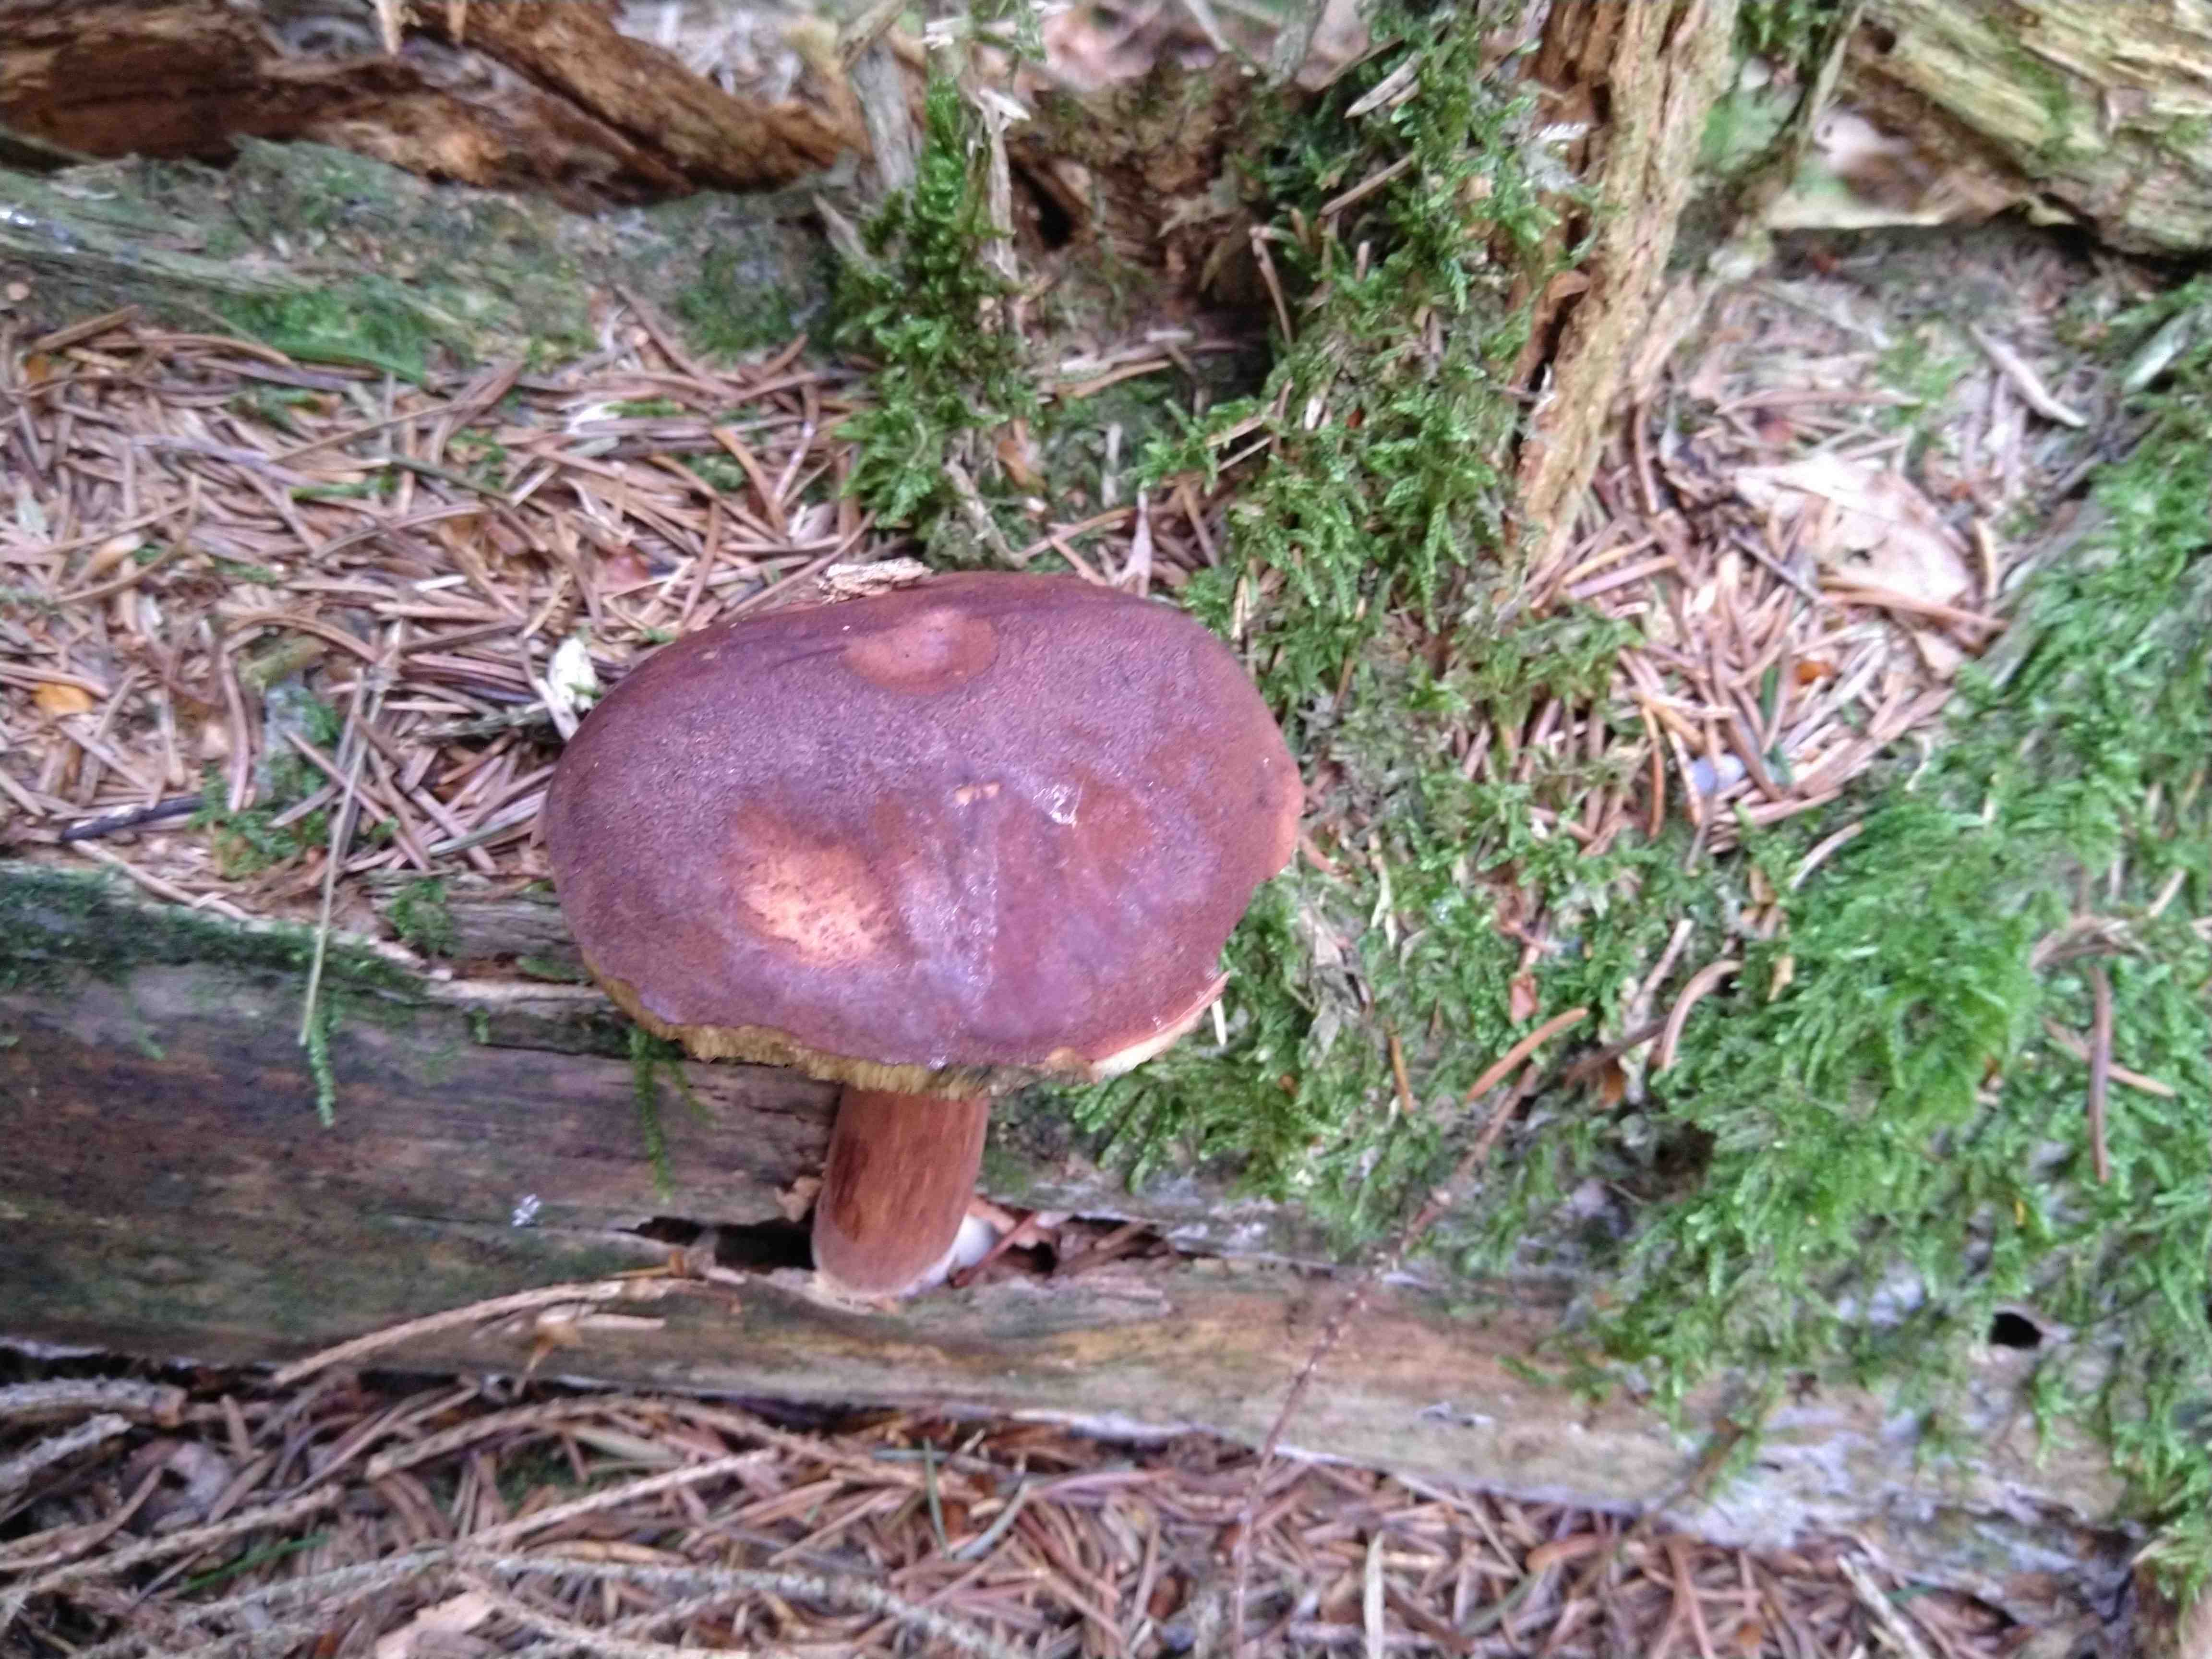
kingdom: Fungi
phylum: Basidiomycota
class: Agaricomycetes
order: Boletales
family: Boletaceae
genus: Imleria
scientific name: Imleria badia
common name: brunstokket rørhat
